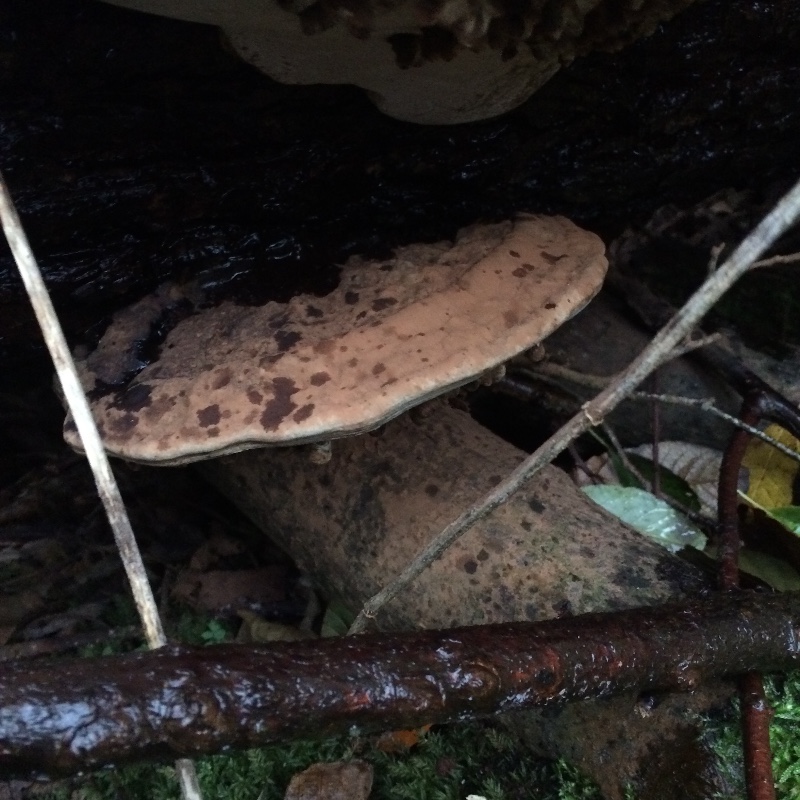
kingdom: Fungi
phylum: Basidiomycota
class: Agaricomycetes
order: Polyporales
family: Polyporaceae
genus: Ganoderma
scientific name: Ganoderma applanatum
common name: flad lakporesvamp
